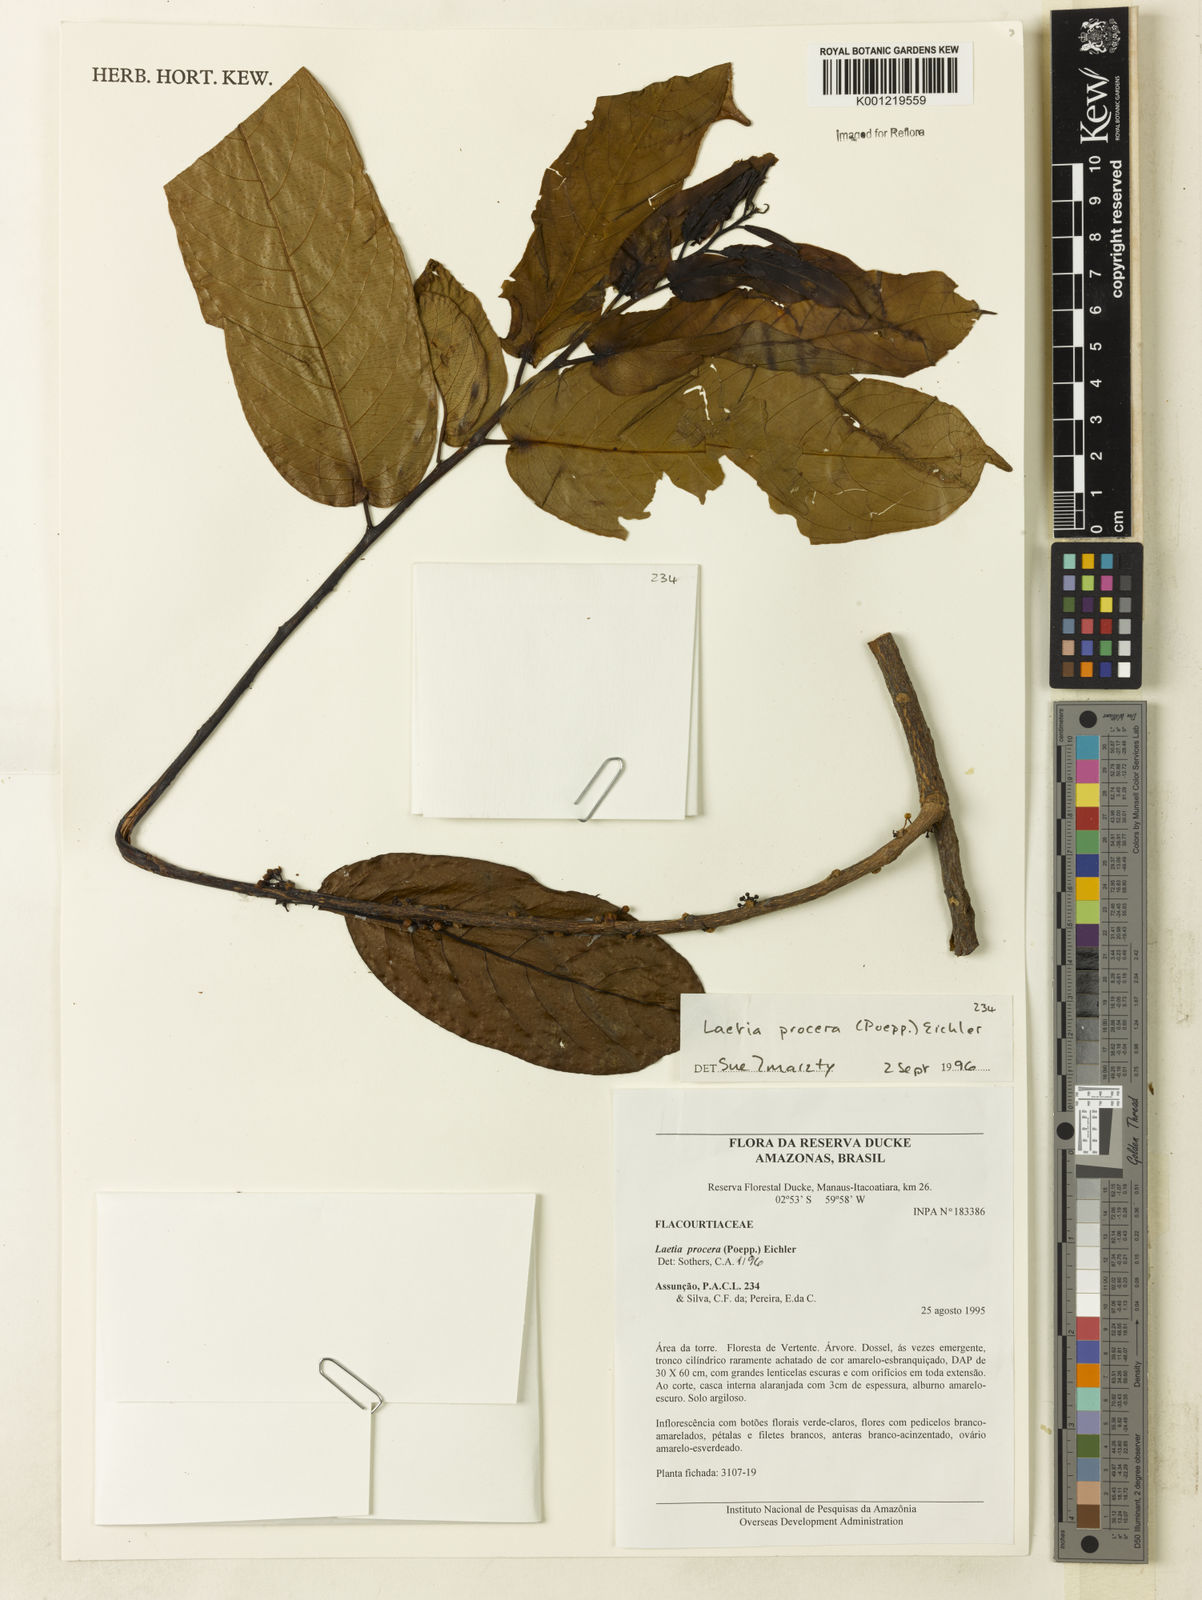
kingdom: Plantae
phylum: Tracheophyta
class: Magnoliopsida
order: Malpighiales
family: Salicaceae
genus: Casearia
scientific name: Casearia bicolor
